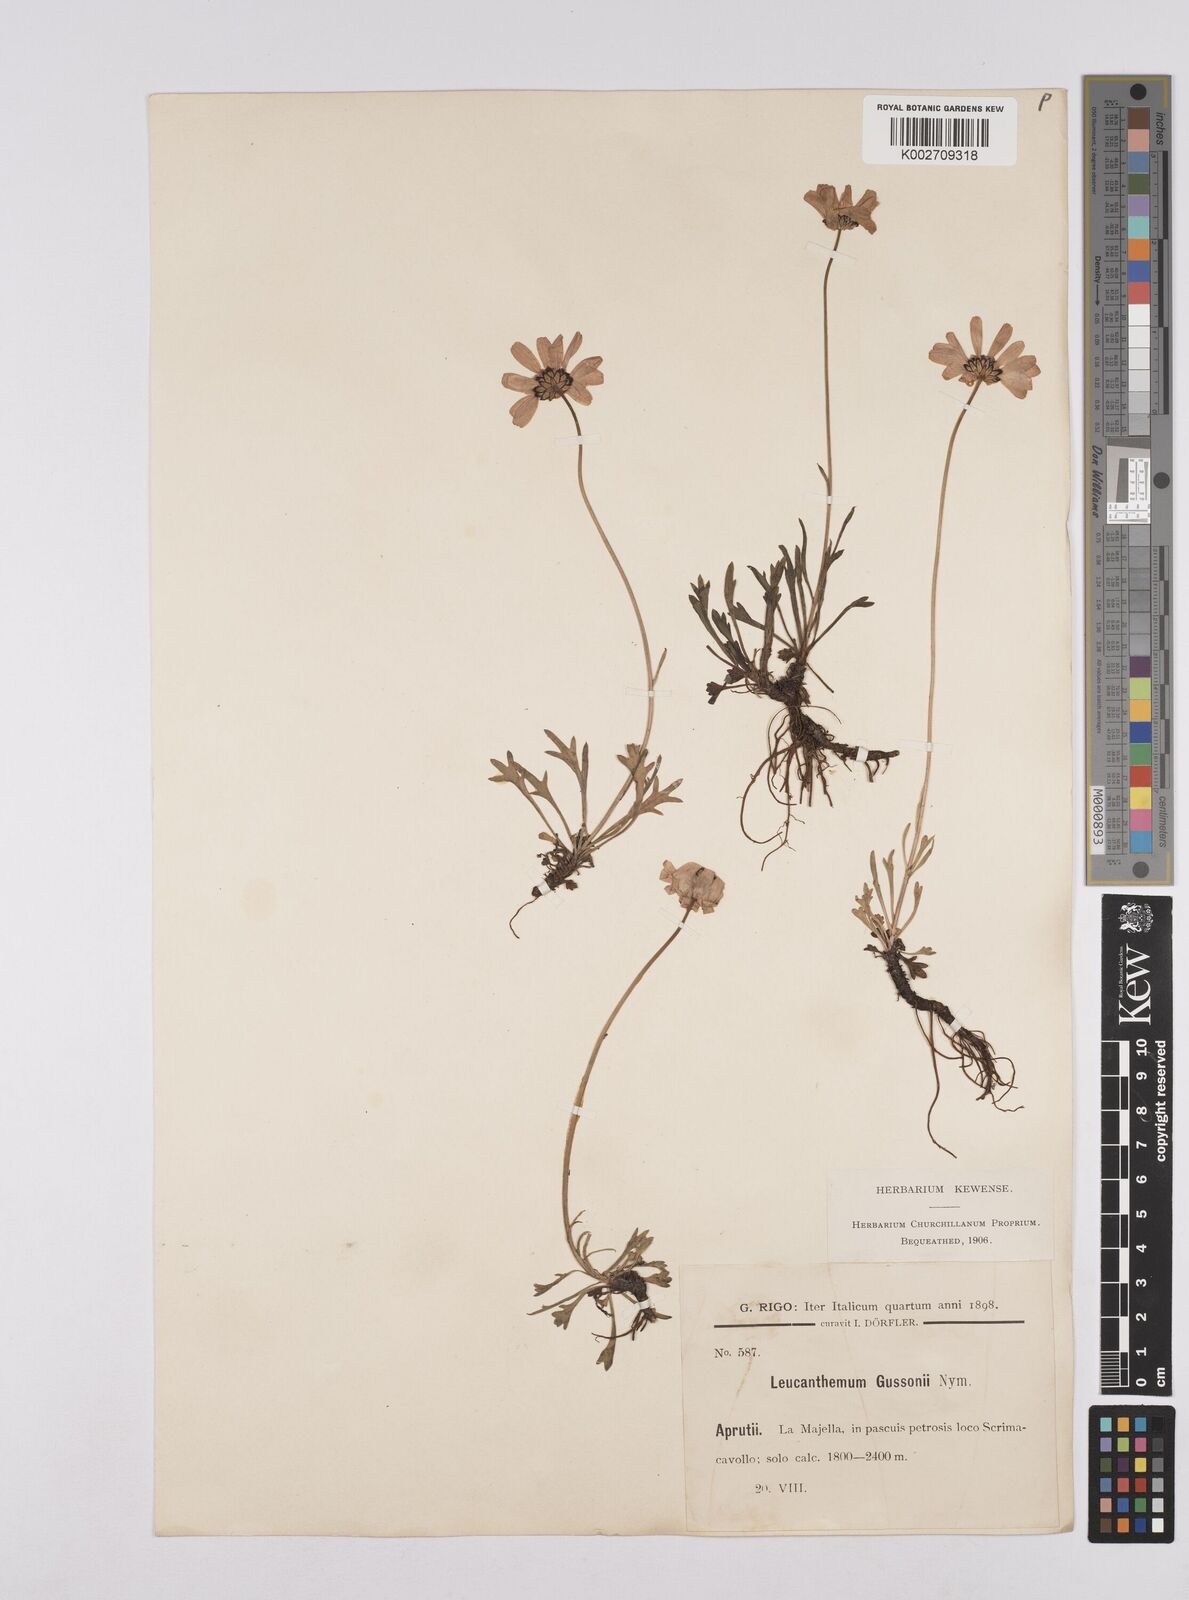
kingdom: Plantae
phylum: Tracheophyta
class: Magnoliopsida
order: Asterales
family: Asteraceae
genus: Leucanthemum
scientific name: Leucanthemum chloroticum
